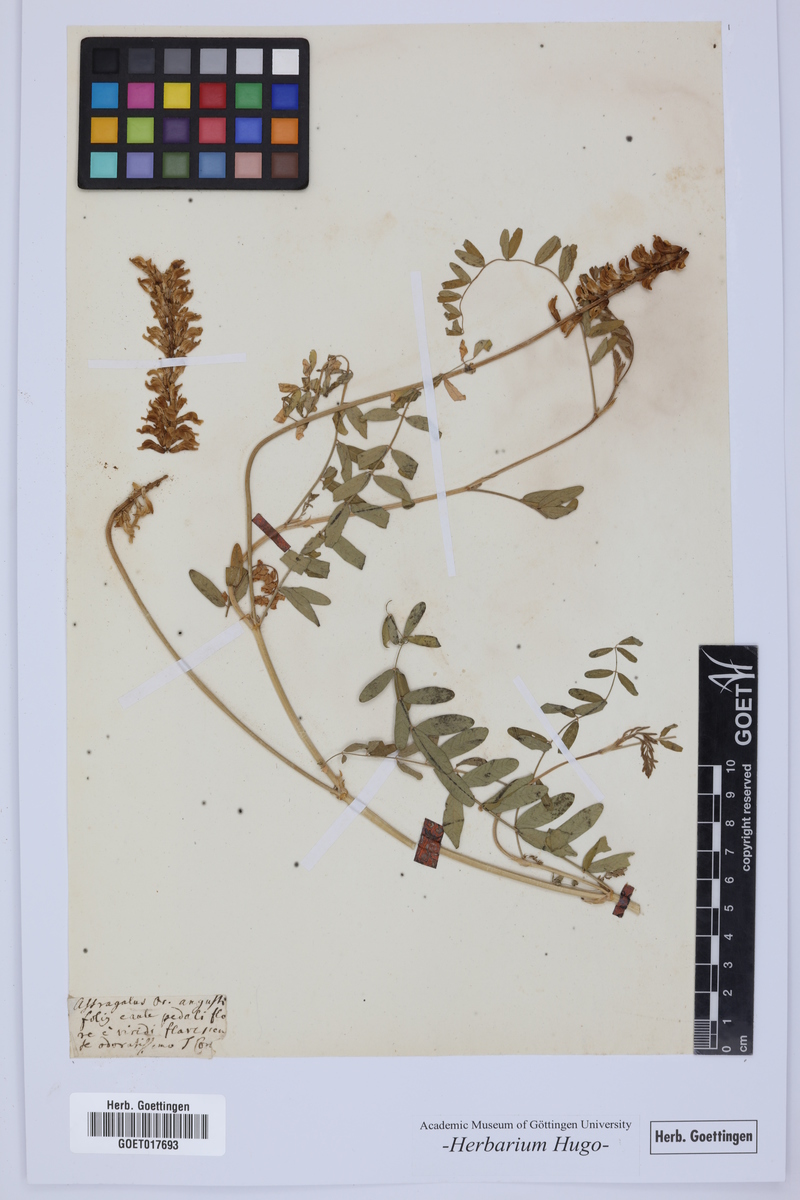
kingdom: Plantae
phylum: Tracheophyta
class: Magnoliopsida
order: Fabales
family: Fabaceae
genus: Astragalus
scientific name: Astragalus
